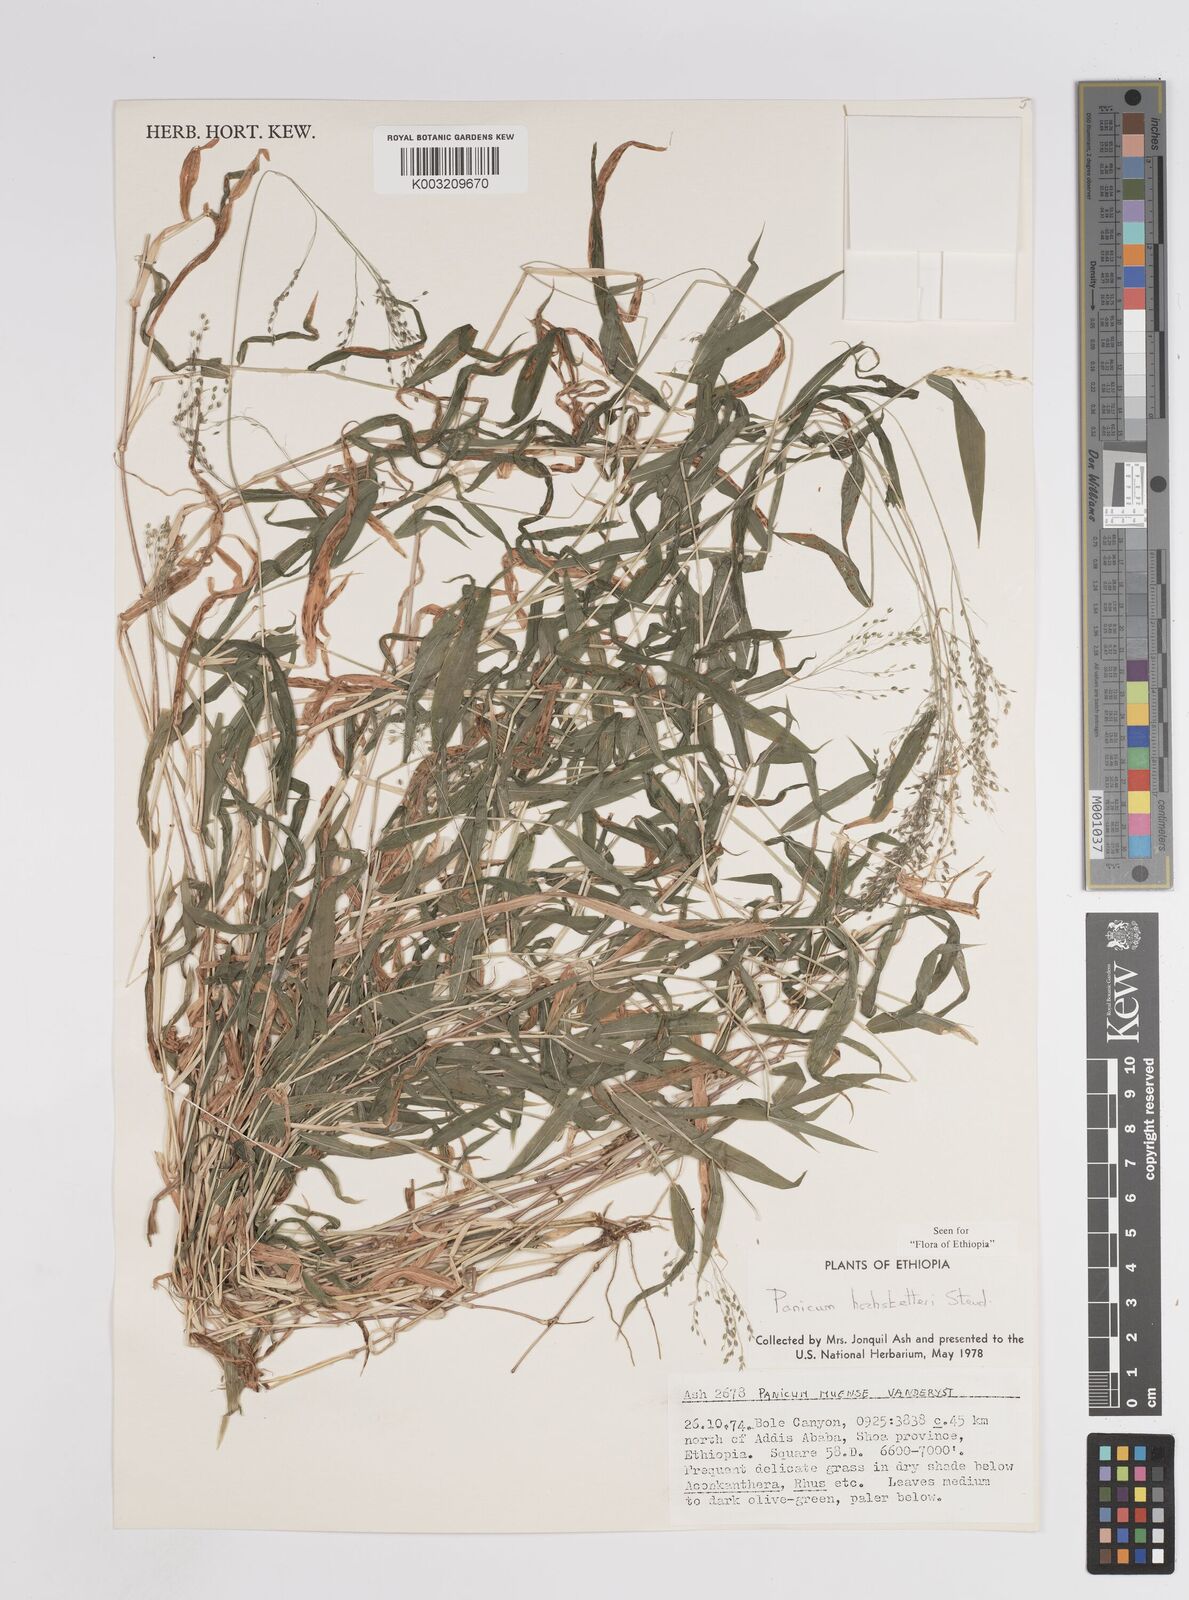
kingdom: Plantae
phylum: Tracheophyta
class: Liliopsida
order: Poales
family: Poaceae
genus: Panicum
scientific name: Panicum hochstetteri
